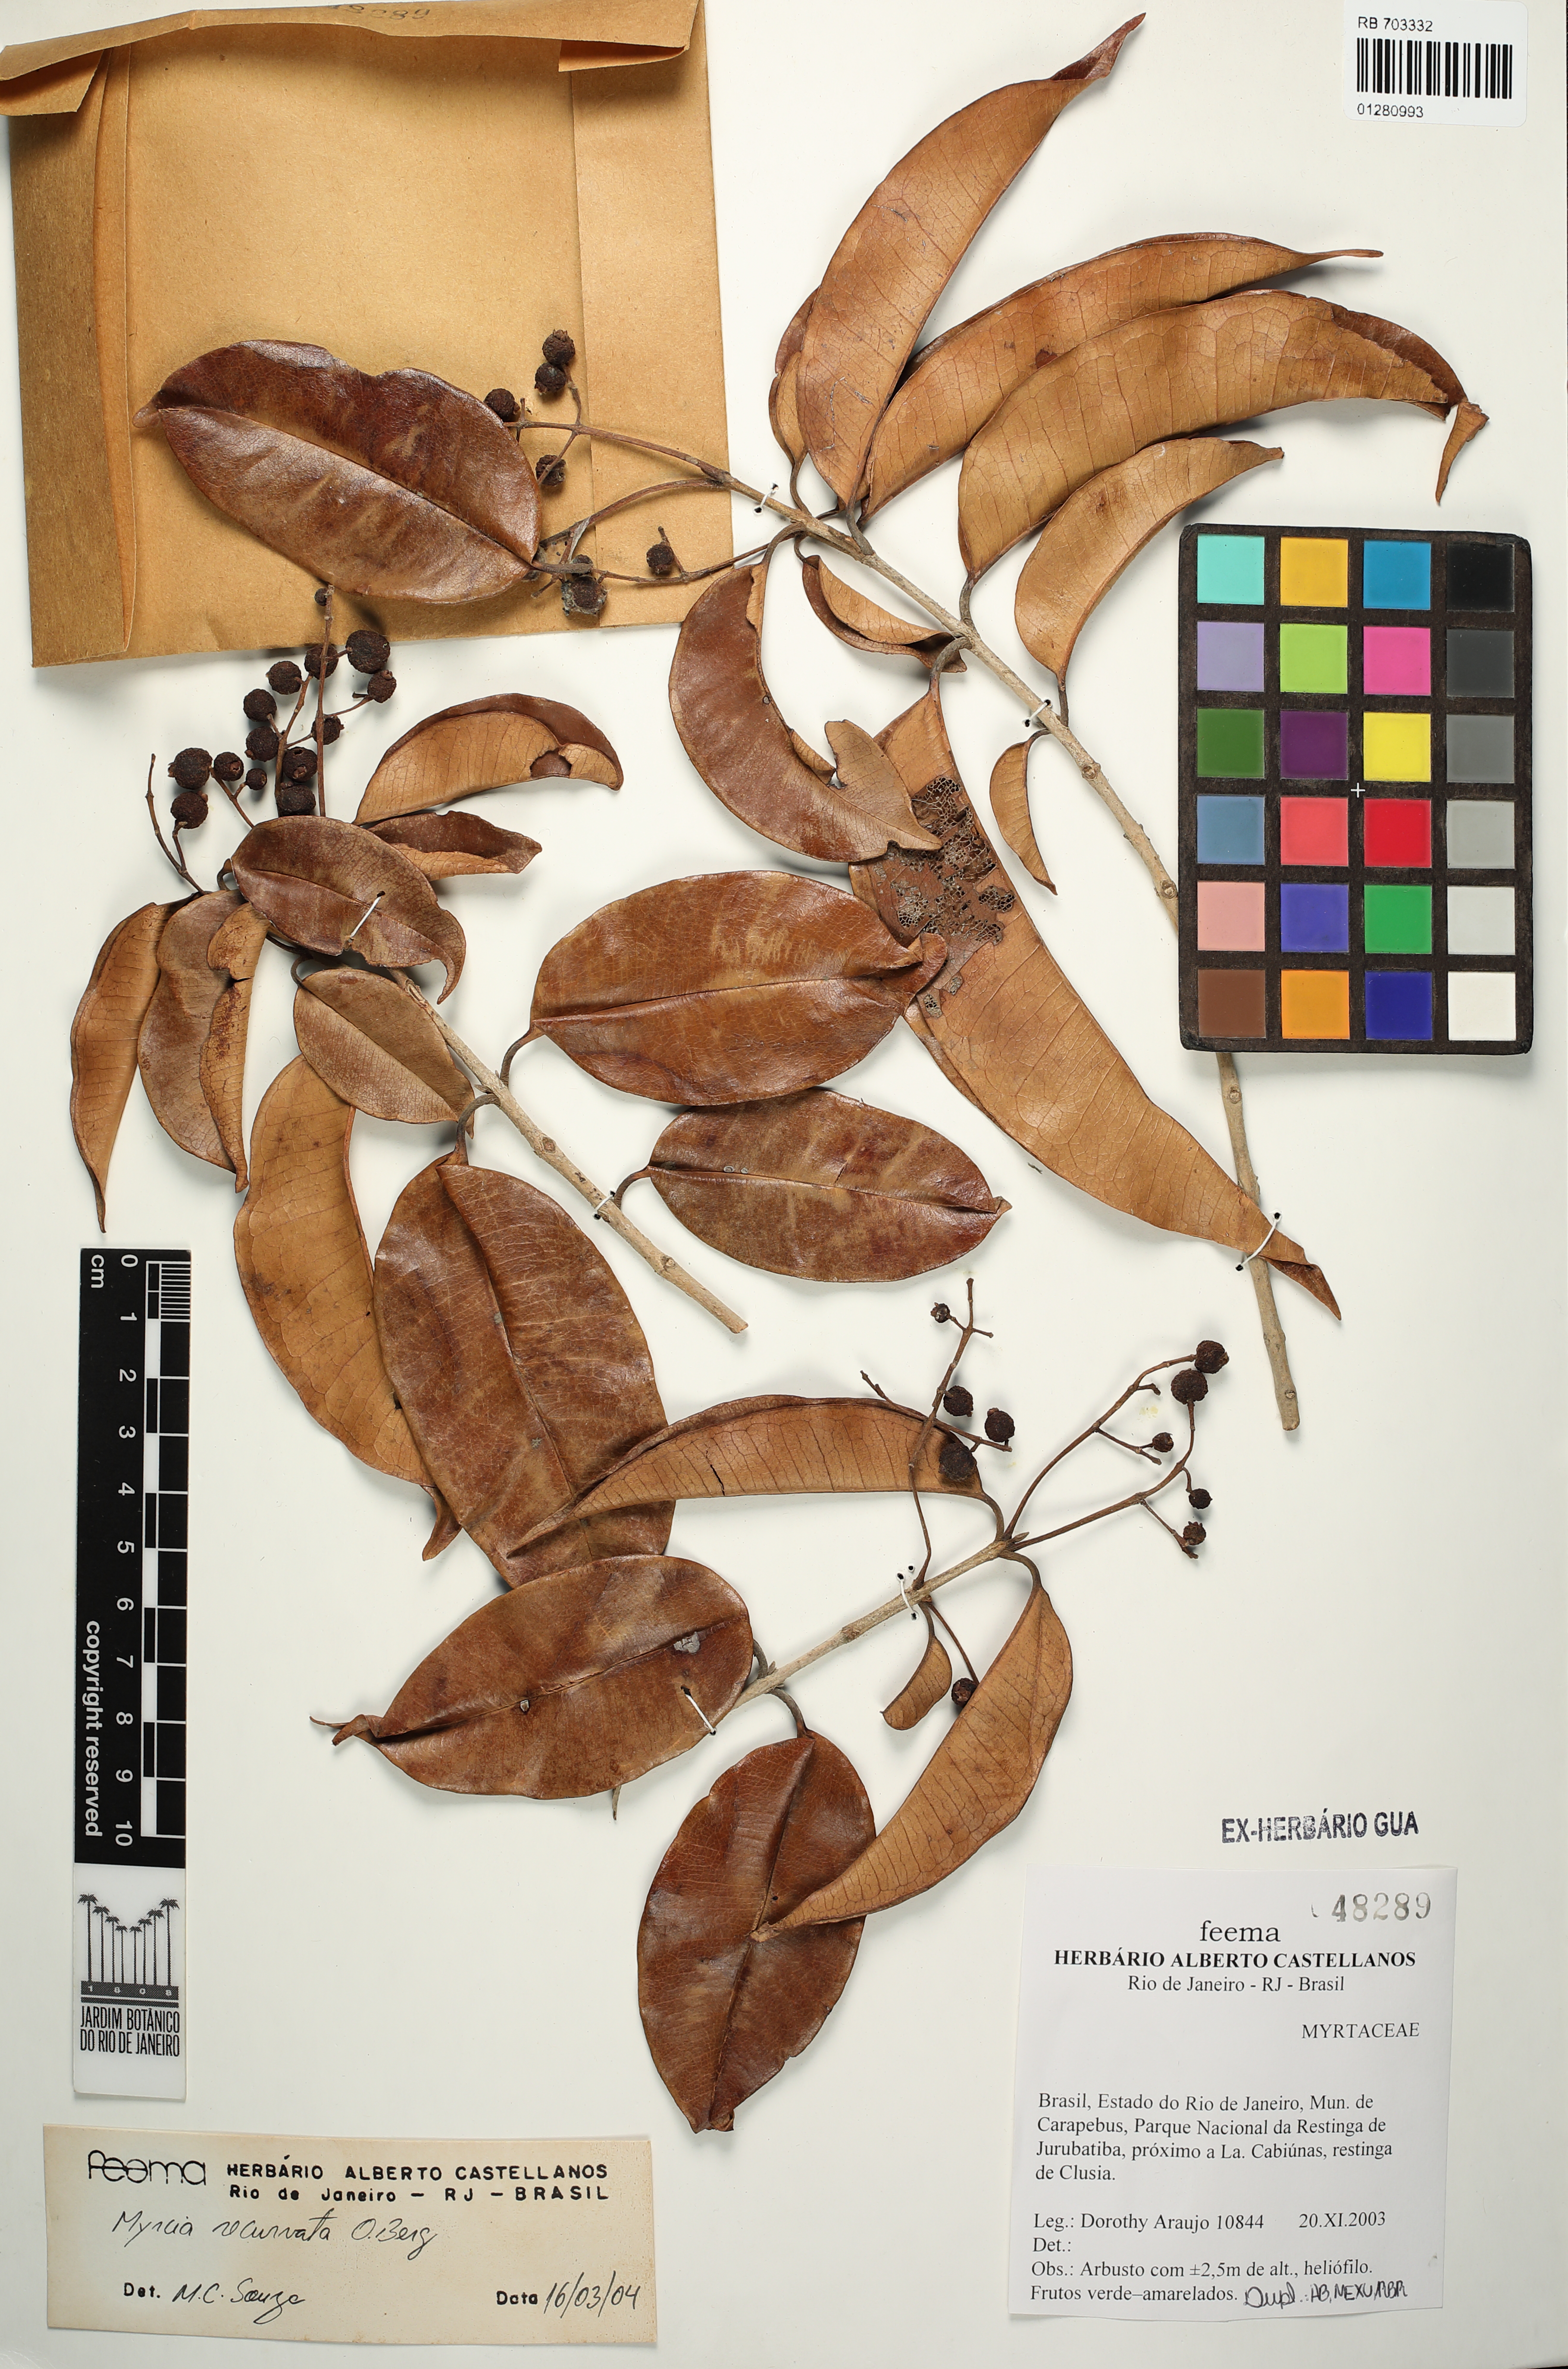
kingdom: Plantae
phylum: Tracheophyta
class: Magnoliopsida
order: Myrtales
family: Myrtaceae
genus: Myrcia
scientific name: Myrcia recurvata
